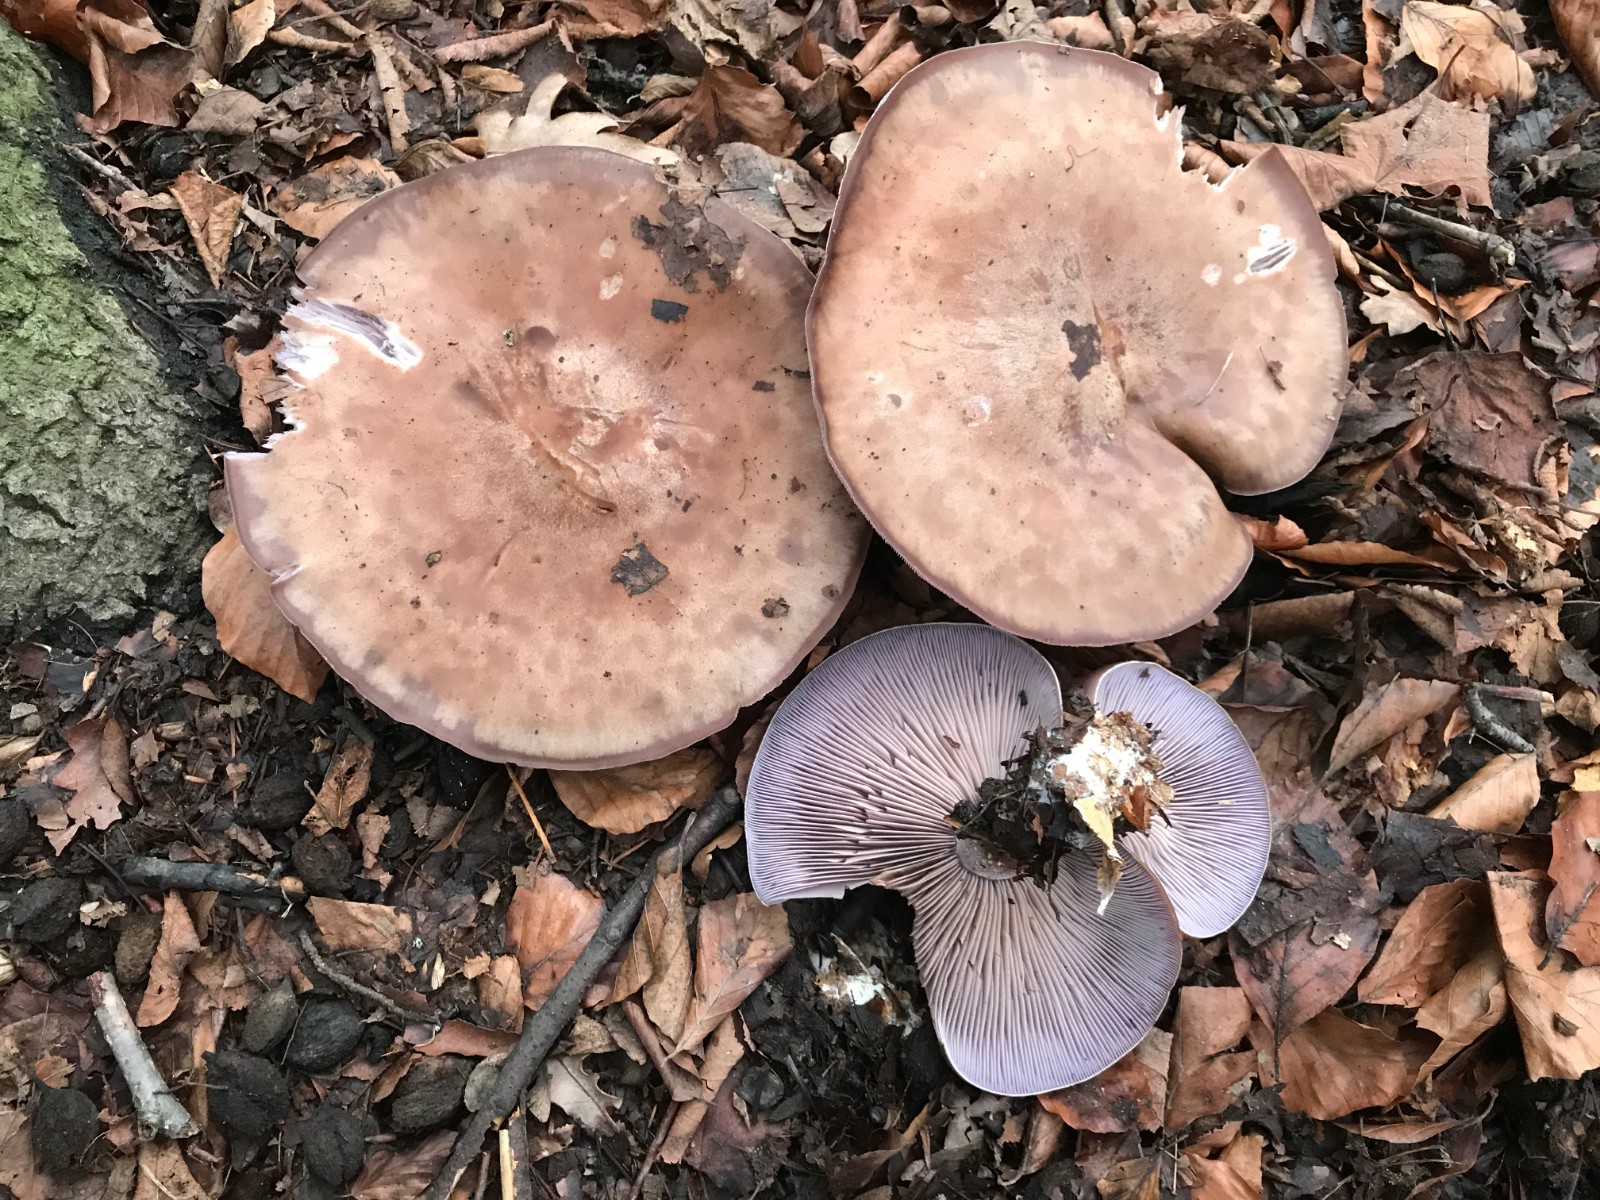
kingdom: Fungi
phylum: Basidiomycota
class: Agaricomycetes
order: Agaricales
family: Tricholomataceae
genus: Lepista
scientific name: Lepista nuda
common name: violet hekseringshat
